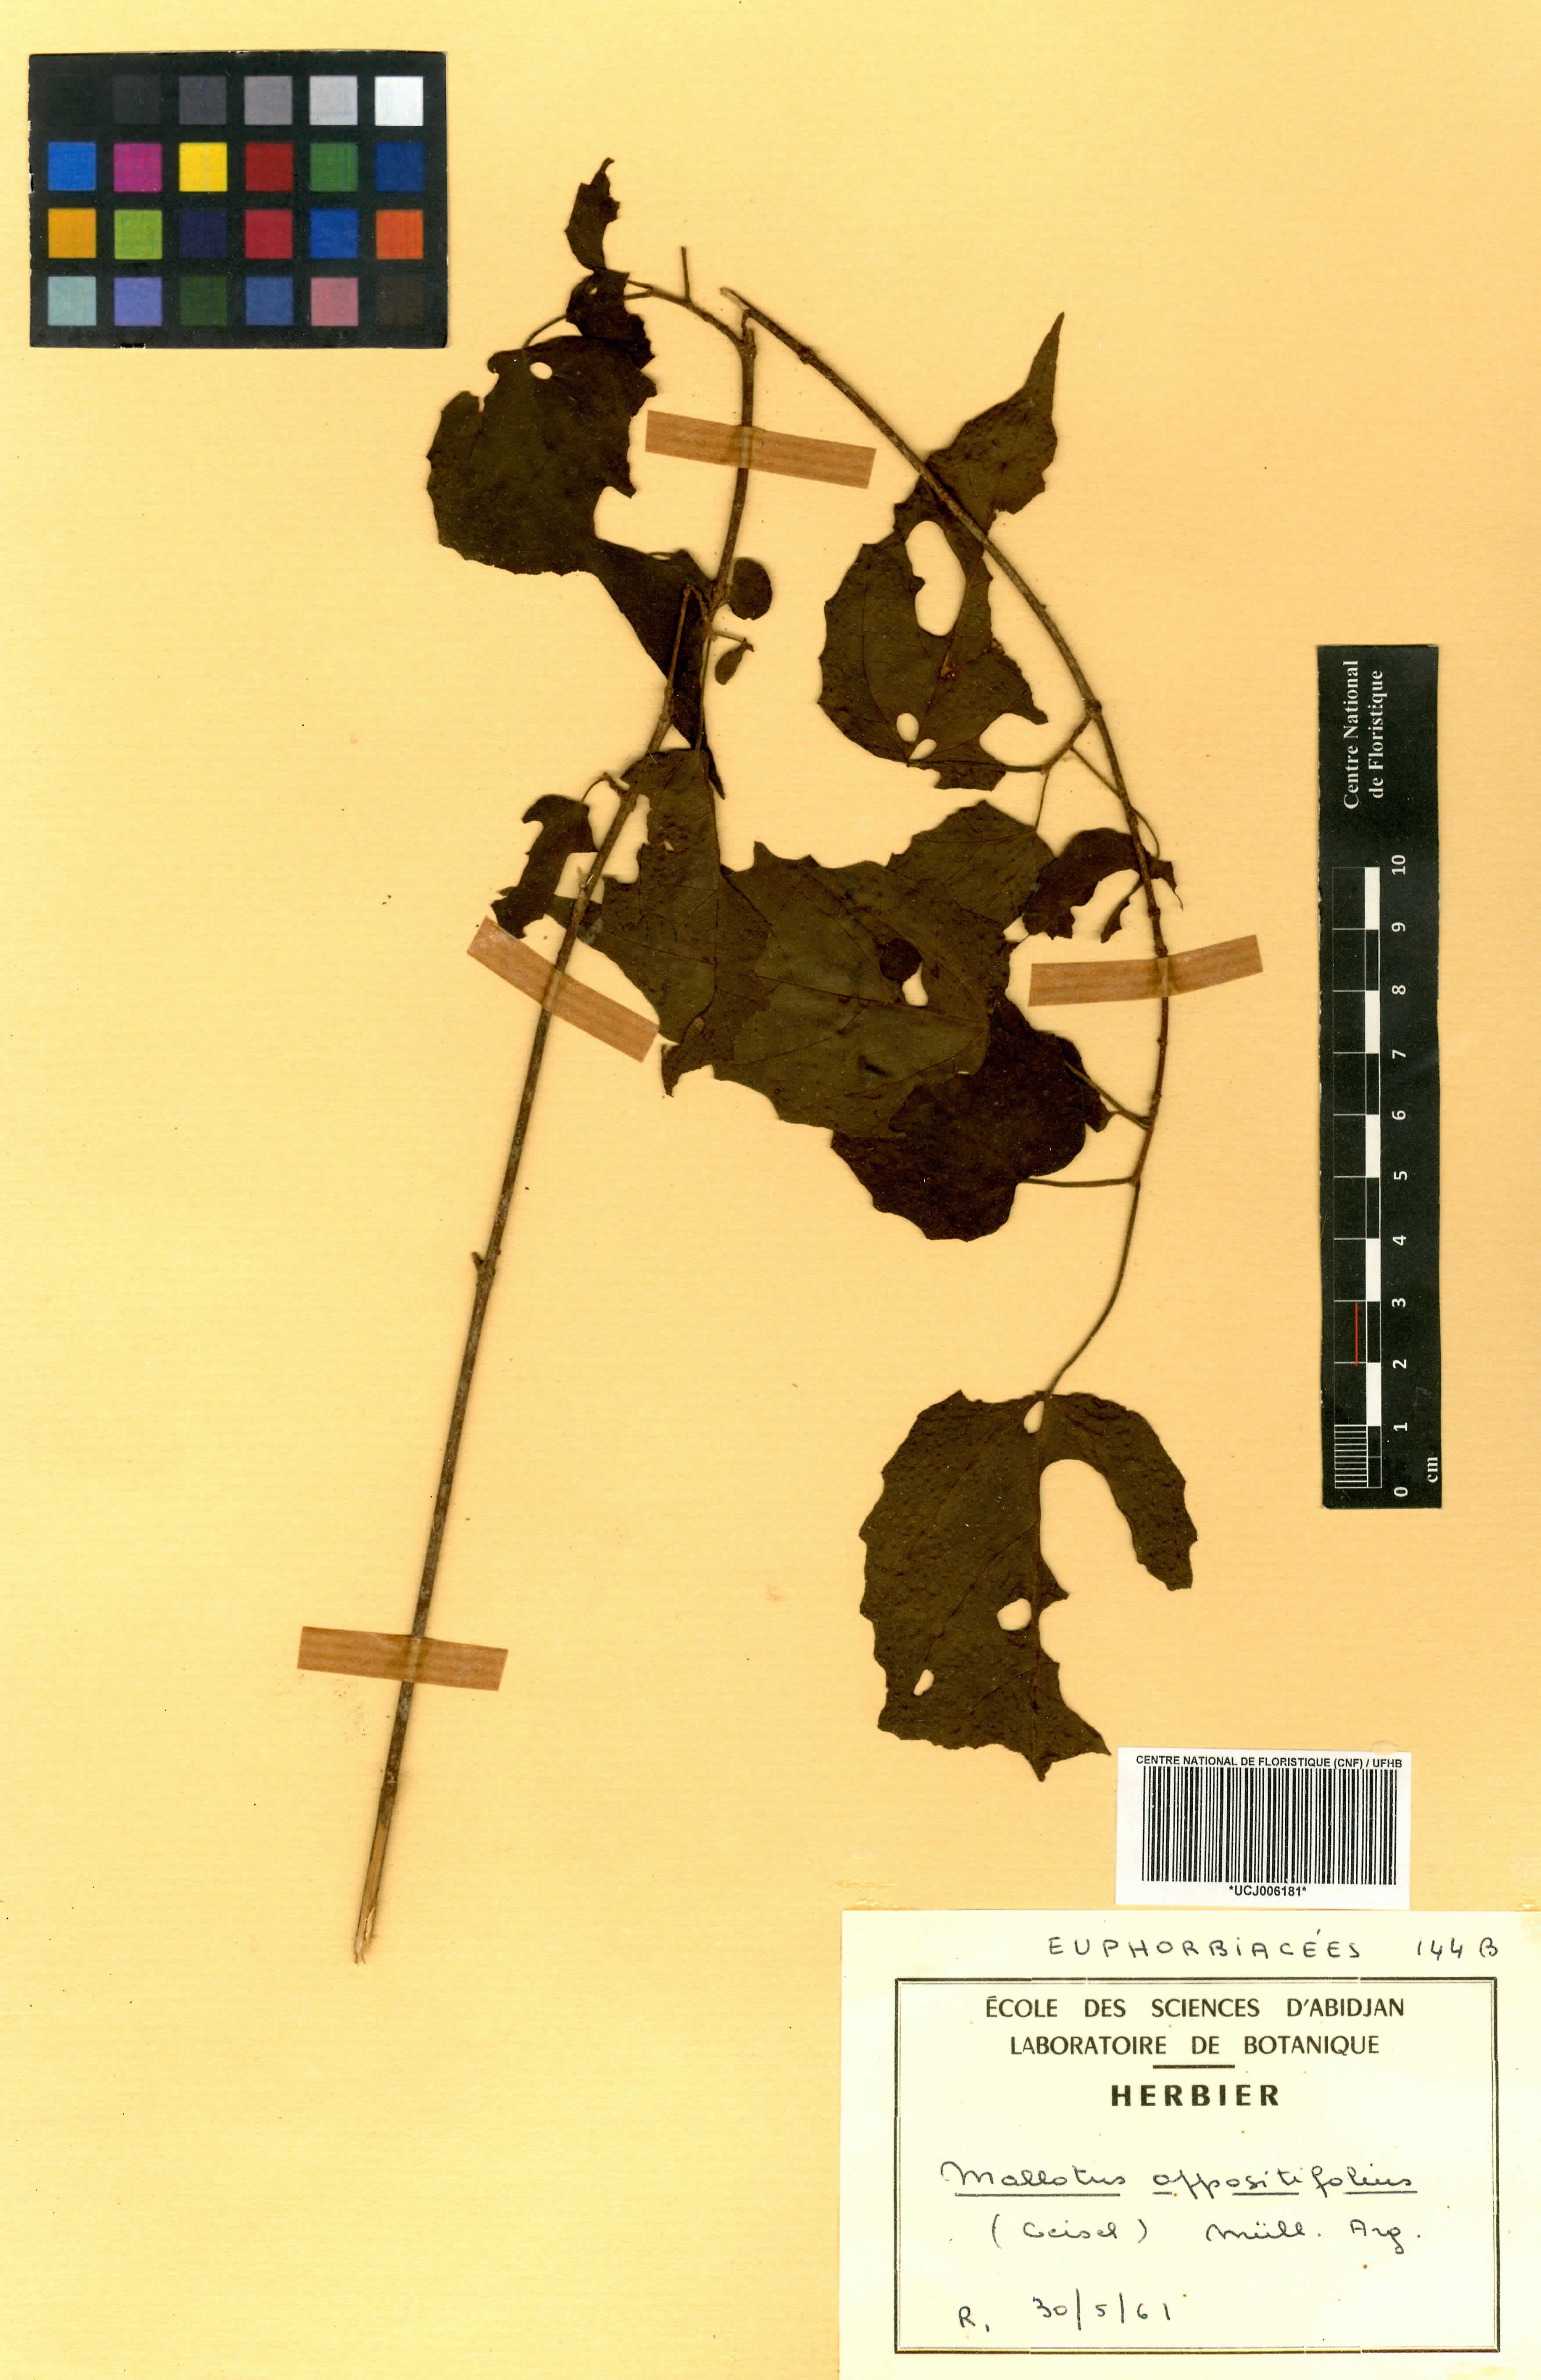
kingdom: Plantae
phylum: Tracheophyta
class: Magnoliopsida
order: Malpighiales
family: Euphorbiaceae
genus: Mallotus
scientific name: Mallotus oppositifolius
